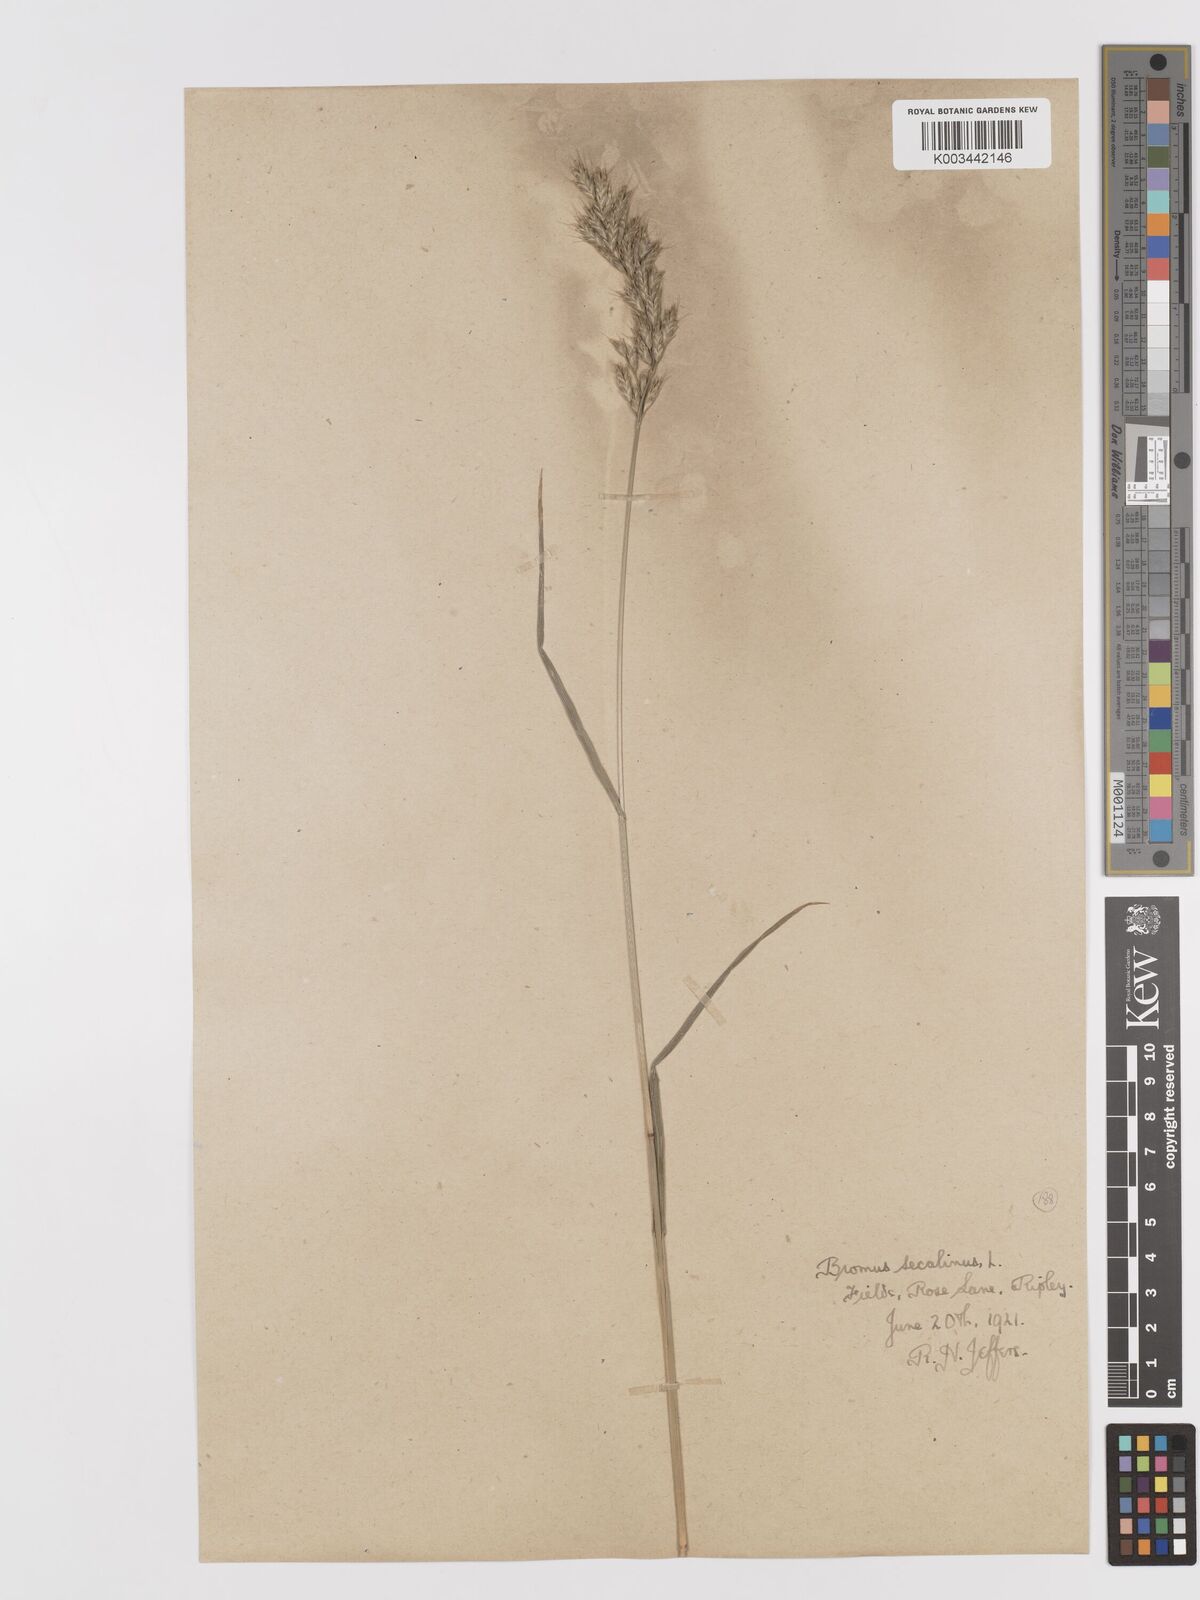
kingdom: Plantae
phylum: Tracheophyta
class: Liliopsida
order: Poales
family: Poaceae
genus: Bromus
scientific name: Bromus lepidus
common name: Slender soft-brome
